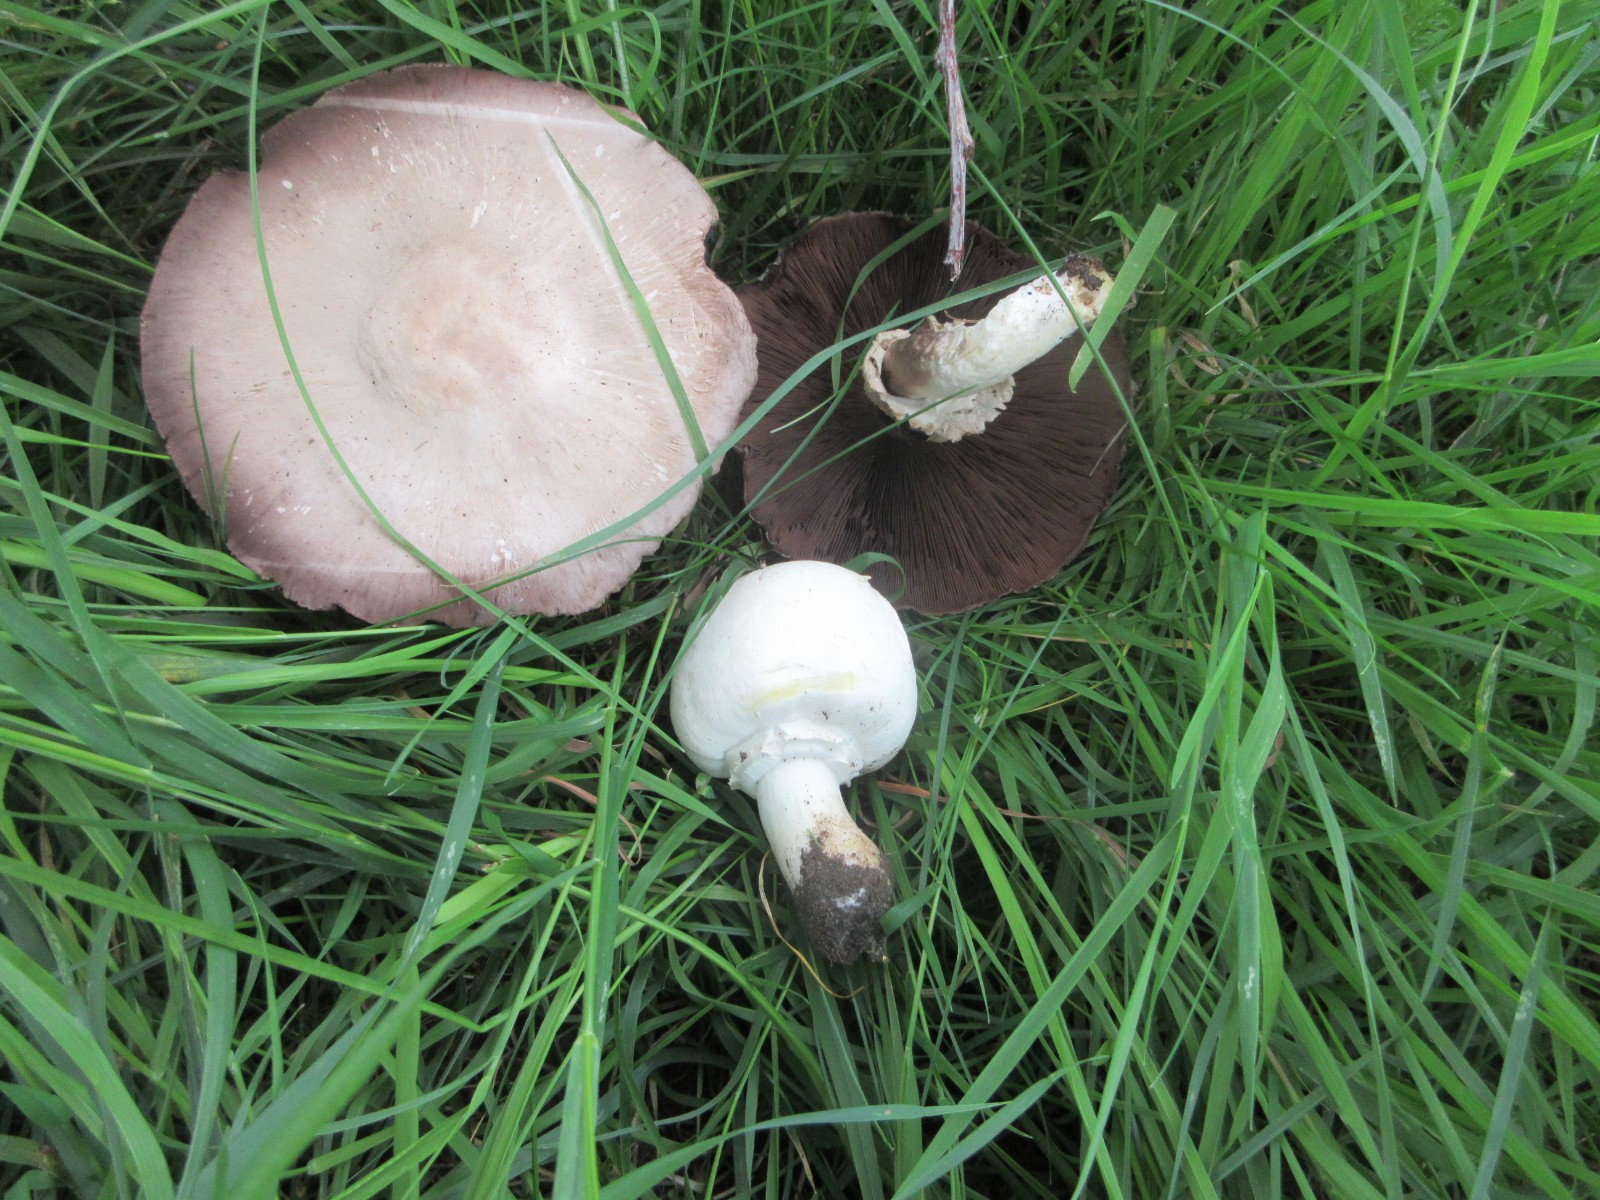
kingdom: Fungi
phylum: Basidiomycota
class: Agaricomycetes
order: Agaricales
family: Agaricaceae
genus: Agaricus
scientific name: Agaricus xanthodermus
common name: karbol-champignon
